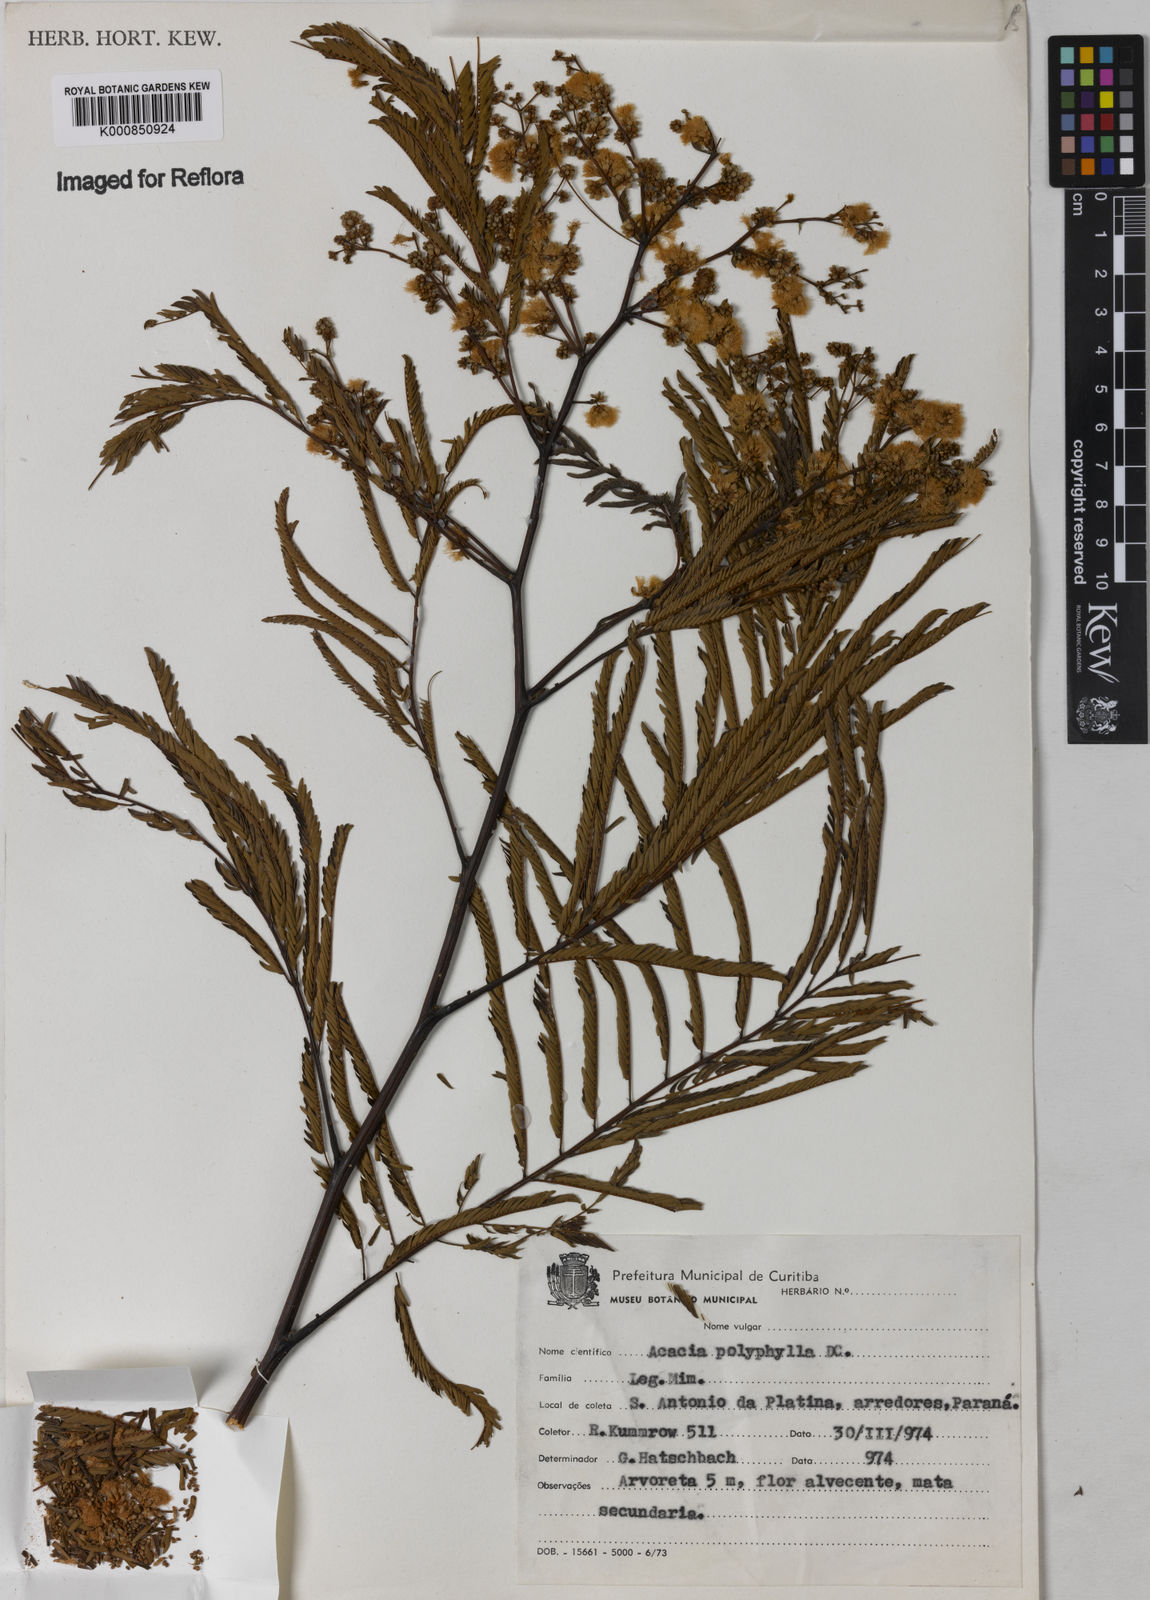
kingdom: Plantae
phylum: Tracheophyta
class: Magnoliopsida
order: Fabales
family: Fabaceae
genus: Senegalia
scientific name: Senegalia polyphylla
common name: White-tamarind
